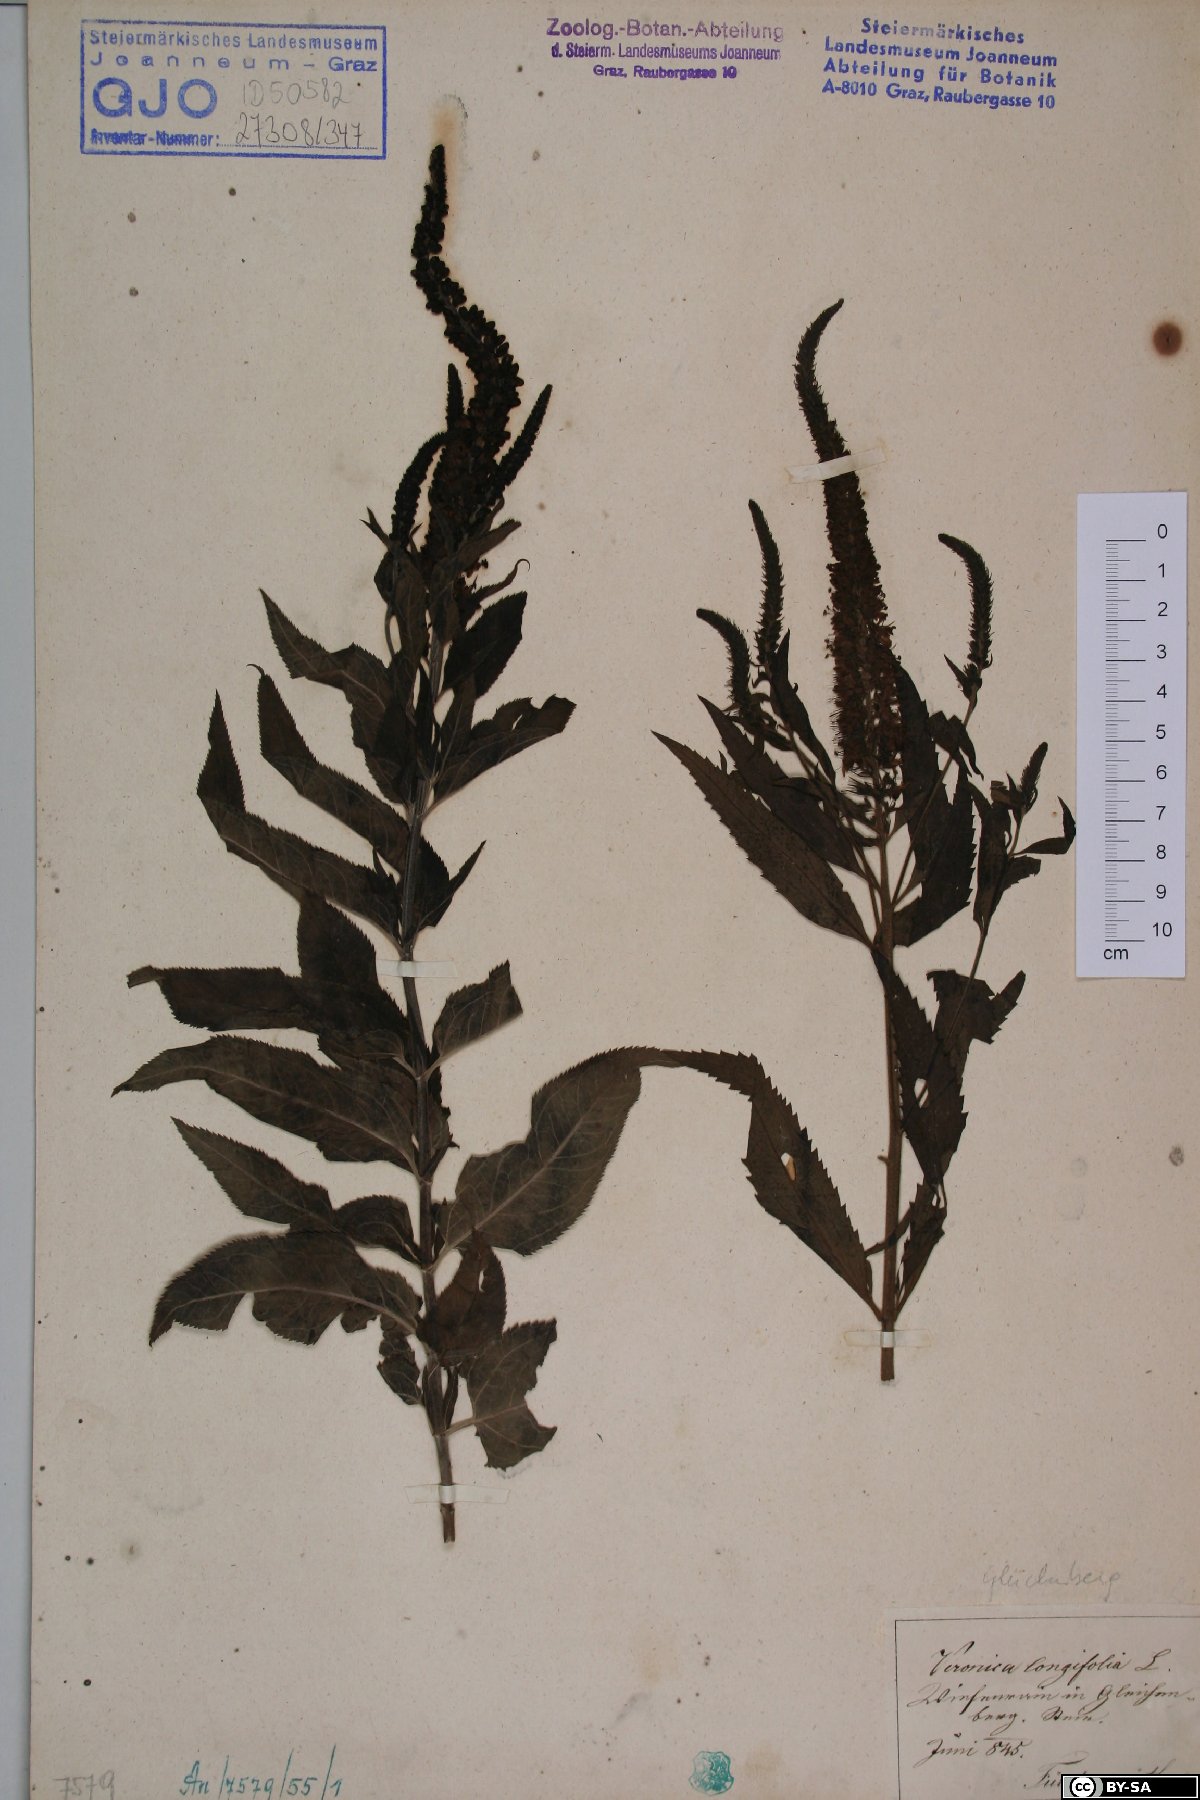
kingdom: Plantae
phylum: Tracheophyta
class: Magnoliopsida
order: Lamiales
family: Plantaginaceae
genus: Veronica
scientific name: Veronica longifolia
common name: Garden speedwell
